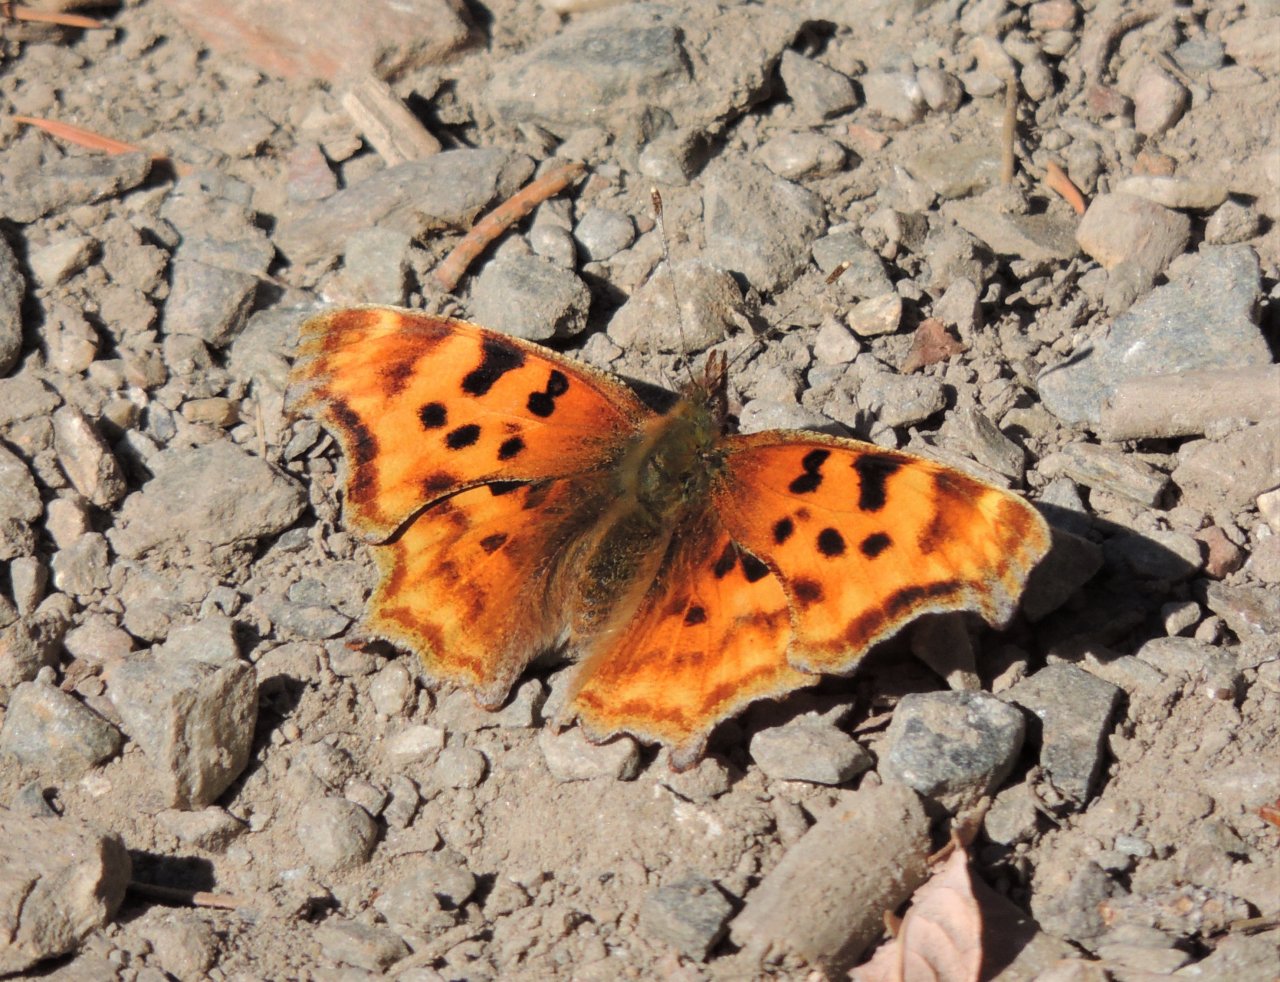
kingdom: Animalia
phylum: Arthropoda
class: Insecta
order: Lepidoptera
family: Nymphalidae
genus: Polygonia
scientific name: Polygonia satyrus
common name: Satyr Comma
